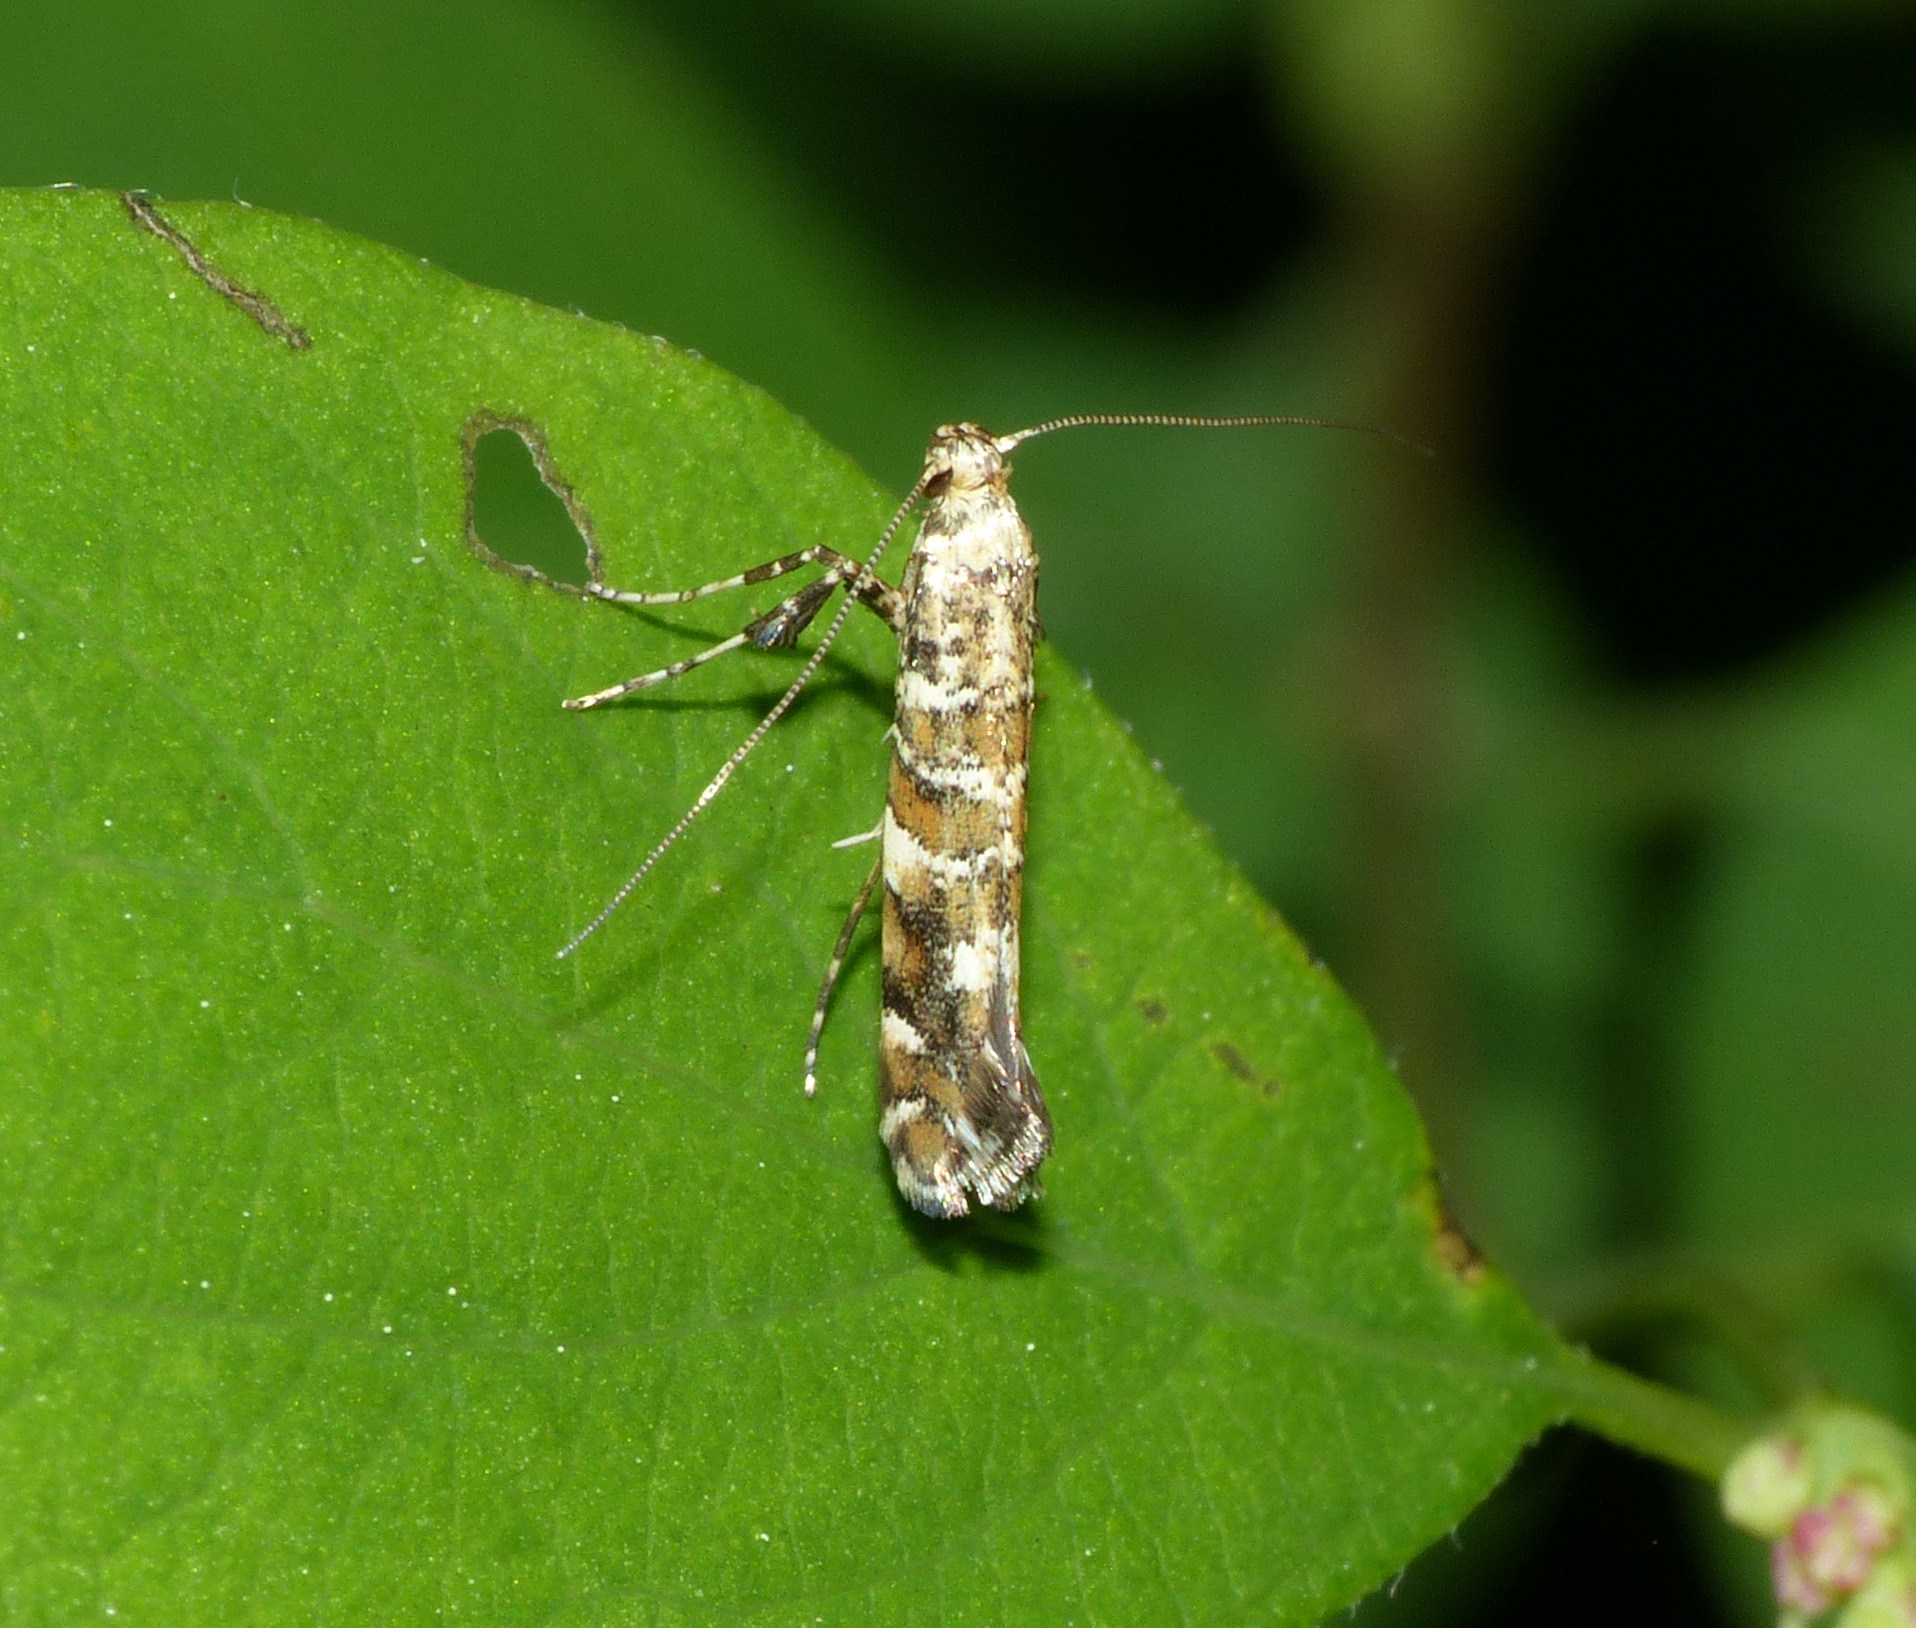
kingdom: Animalia
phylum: Arthropoda
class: Insecta
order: Lepidoptera
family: Gracillariidae
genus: Gracillaria
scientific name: Gracillaria syringella
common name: Syrenmøl
